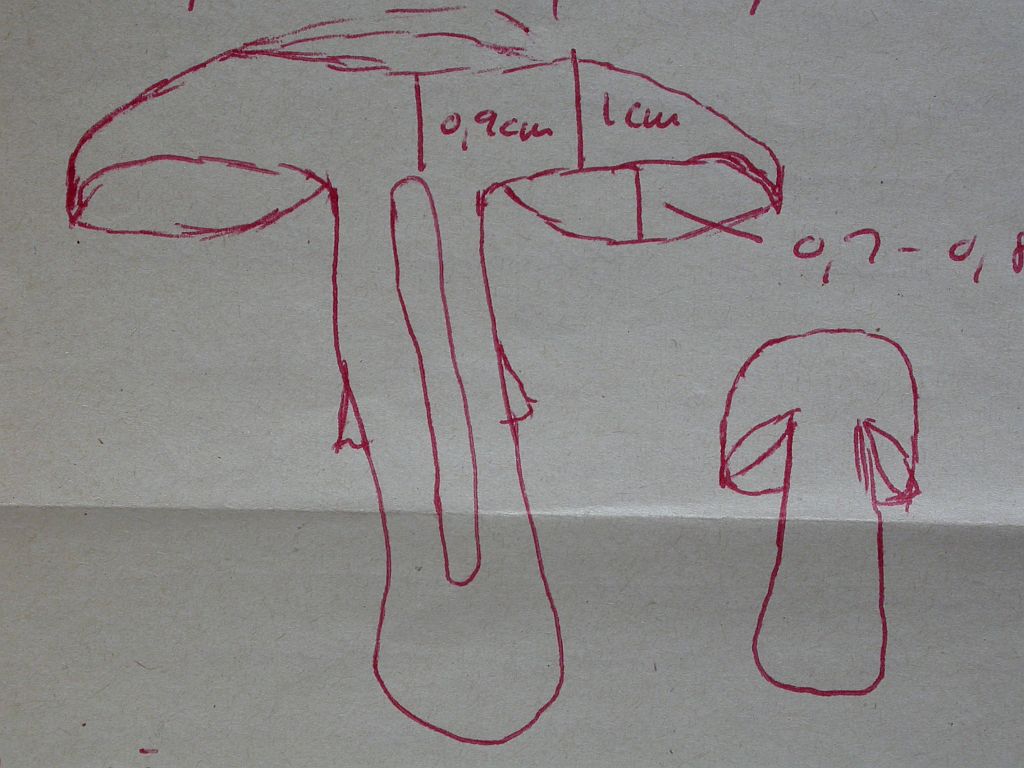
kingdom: Fungi
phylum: Basidiomycota
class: Agaricomycetes
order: Agaricales
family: Agaricaceae
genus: Agaricus
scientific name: Agaricus brunneolus
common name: purpur-champignon
